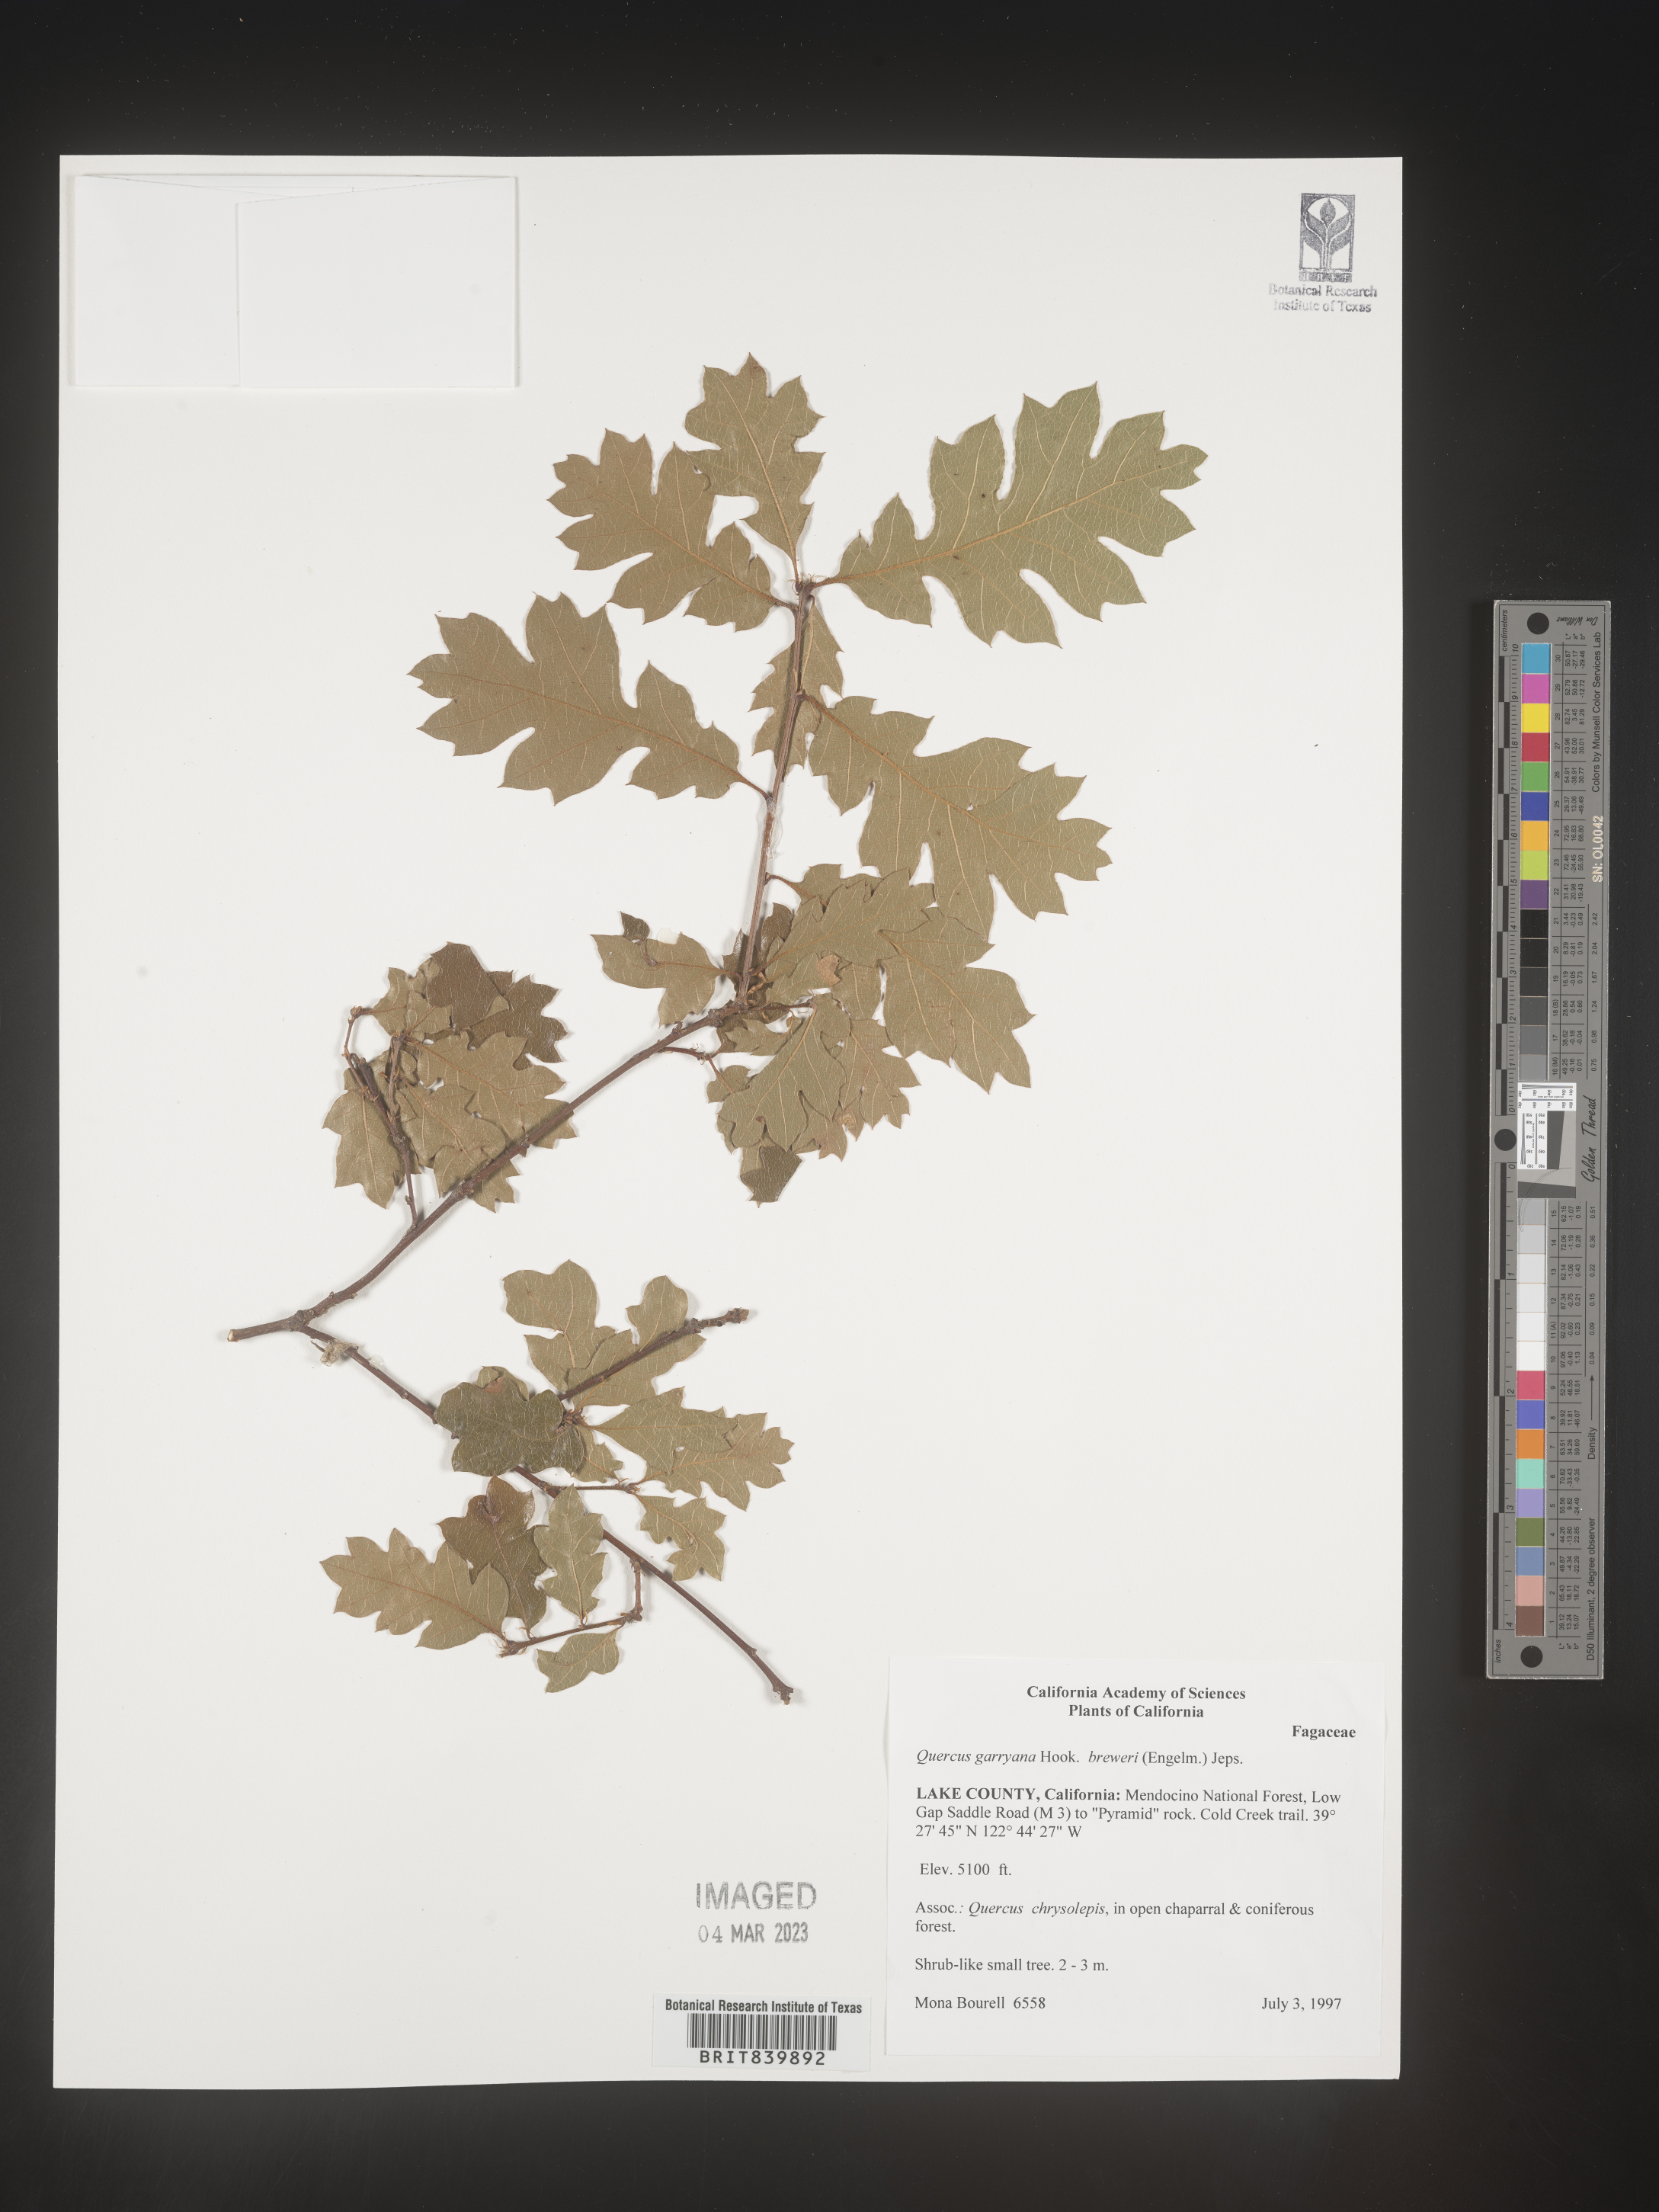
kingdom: Plantae
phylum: Tracheophyta
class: Magnoliopsida
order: Fagales
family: Fagaceae
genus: Quercus
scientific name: Quercus garryana
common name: Garry oak
